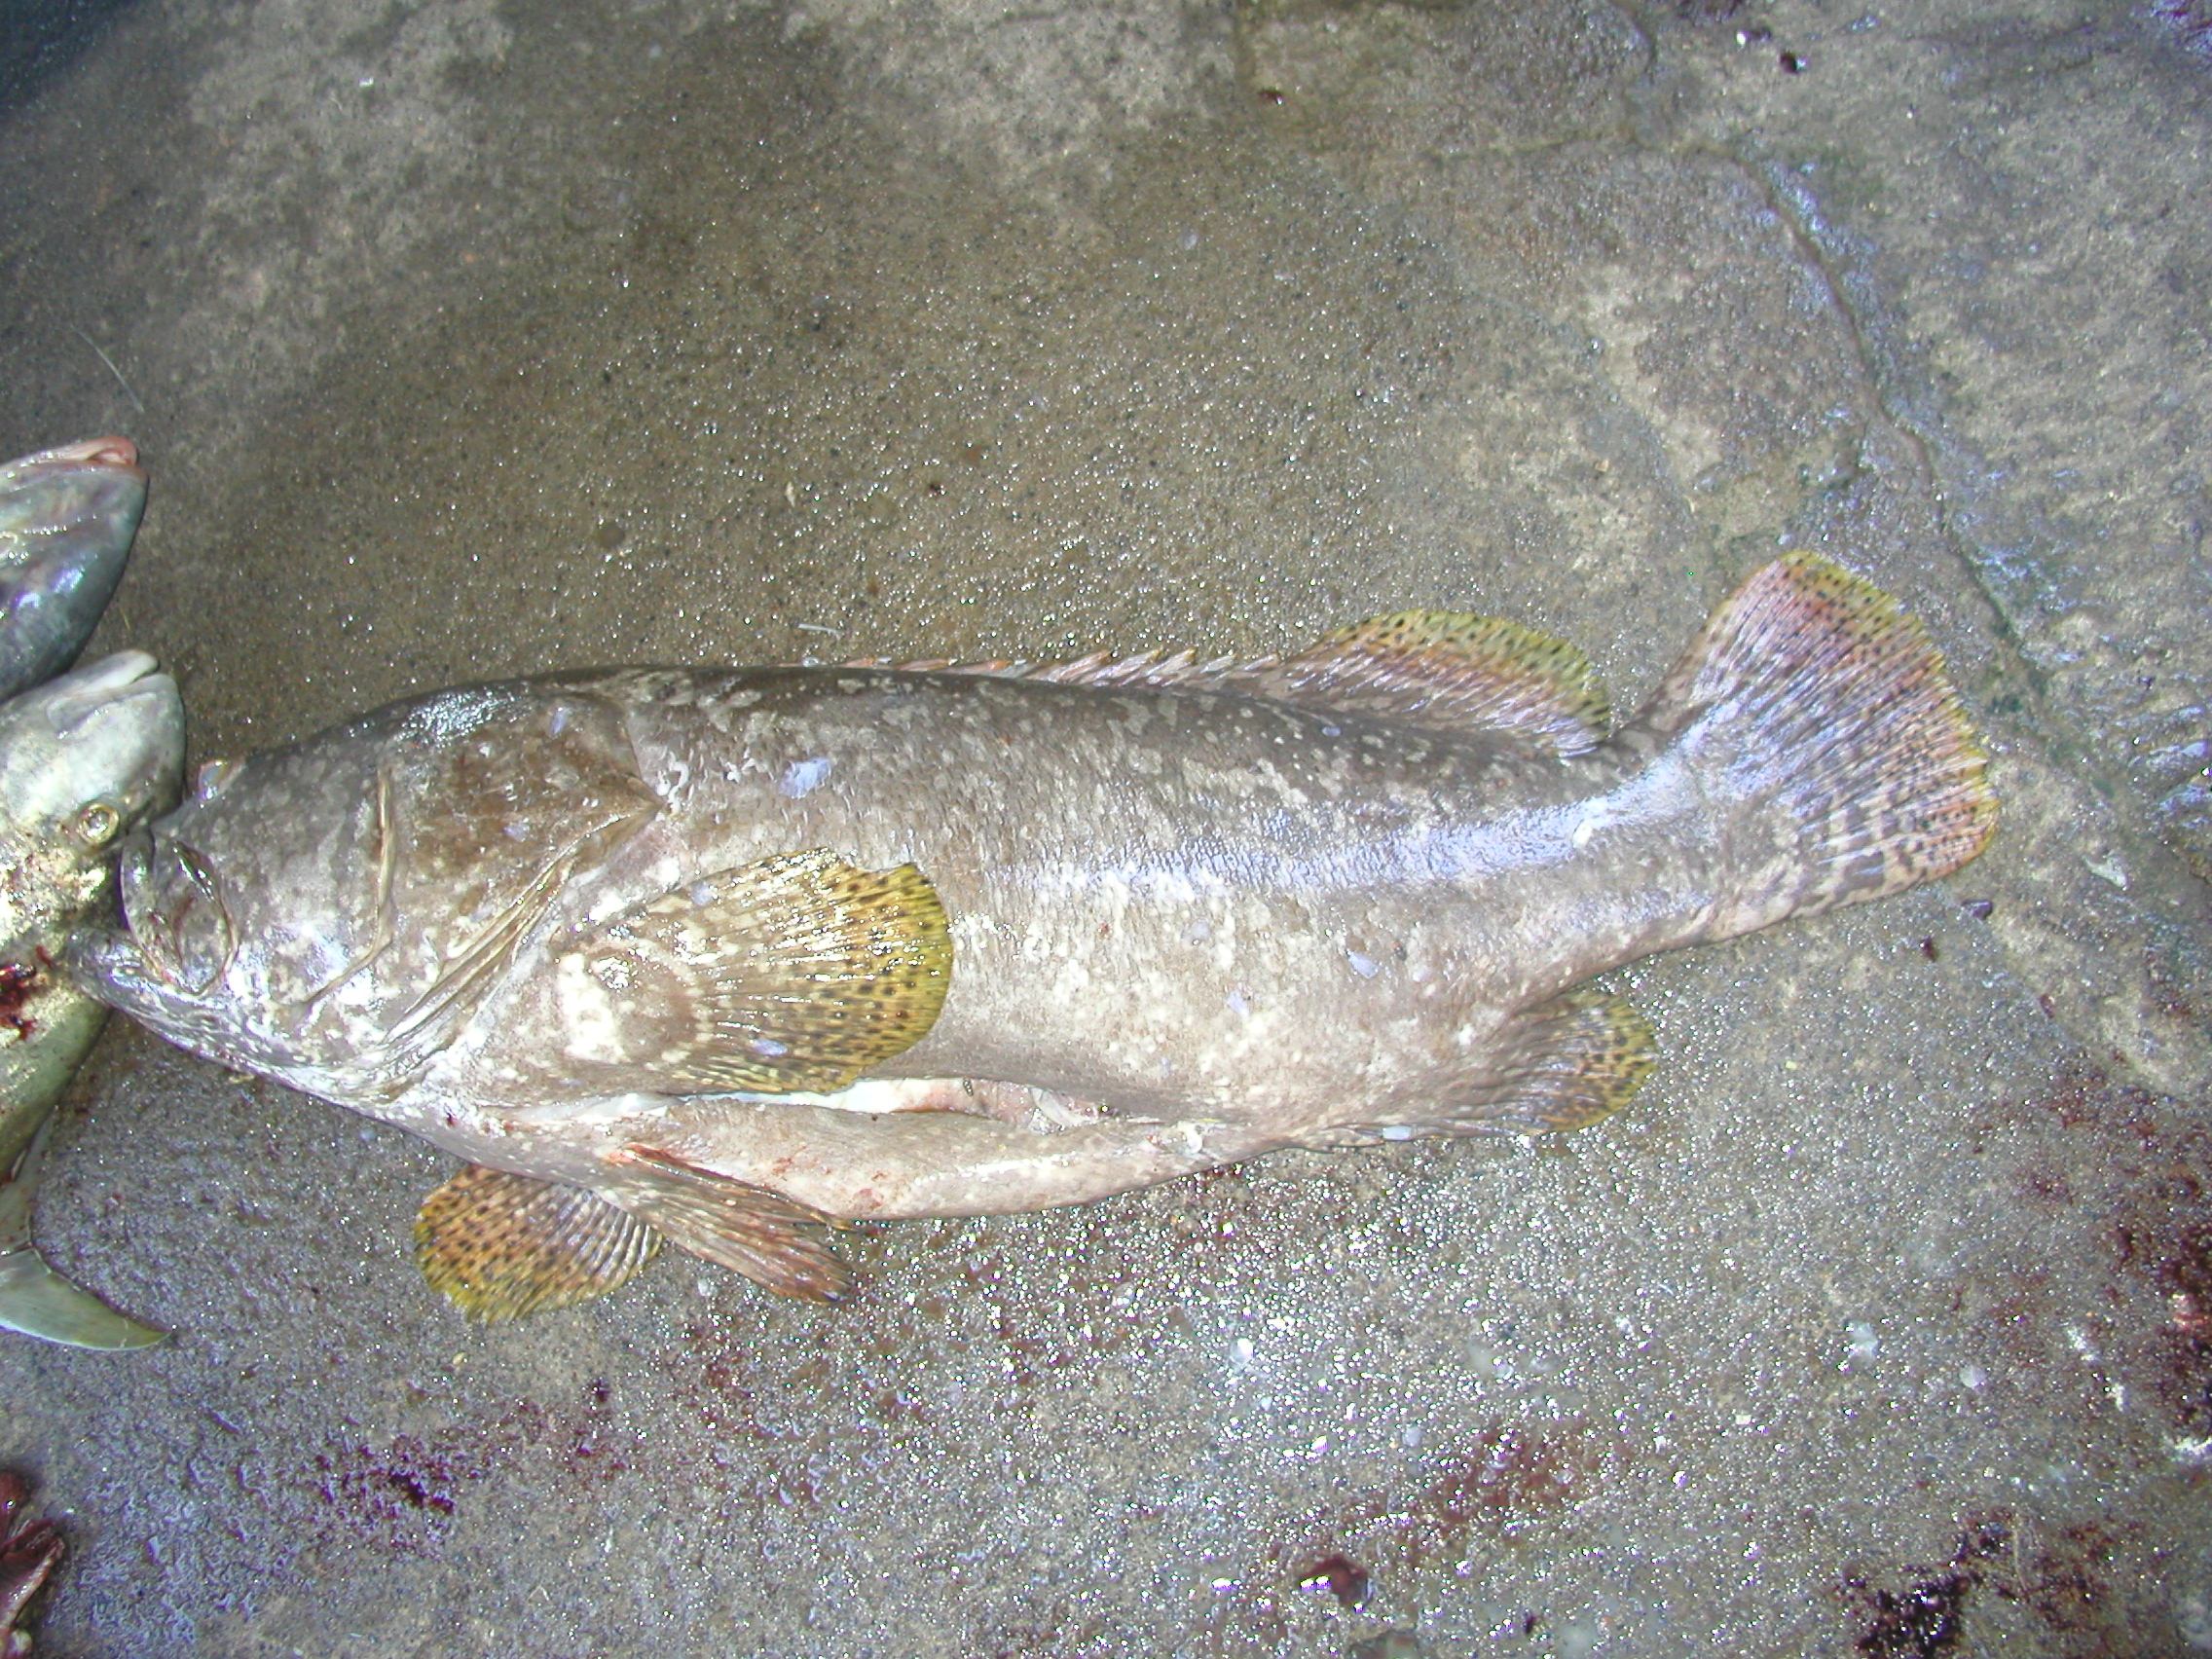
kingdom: Animalia
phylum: Chordata
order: Perciformes
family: Serranidae
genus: Epinephelus
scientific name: Epinephelus lanceolatus
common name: Giant grouper
